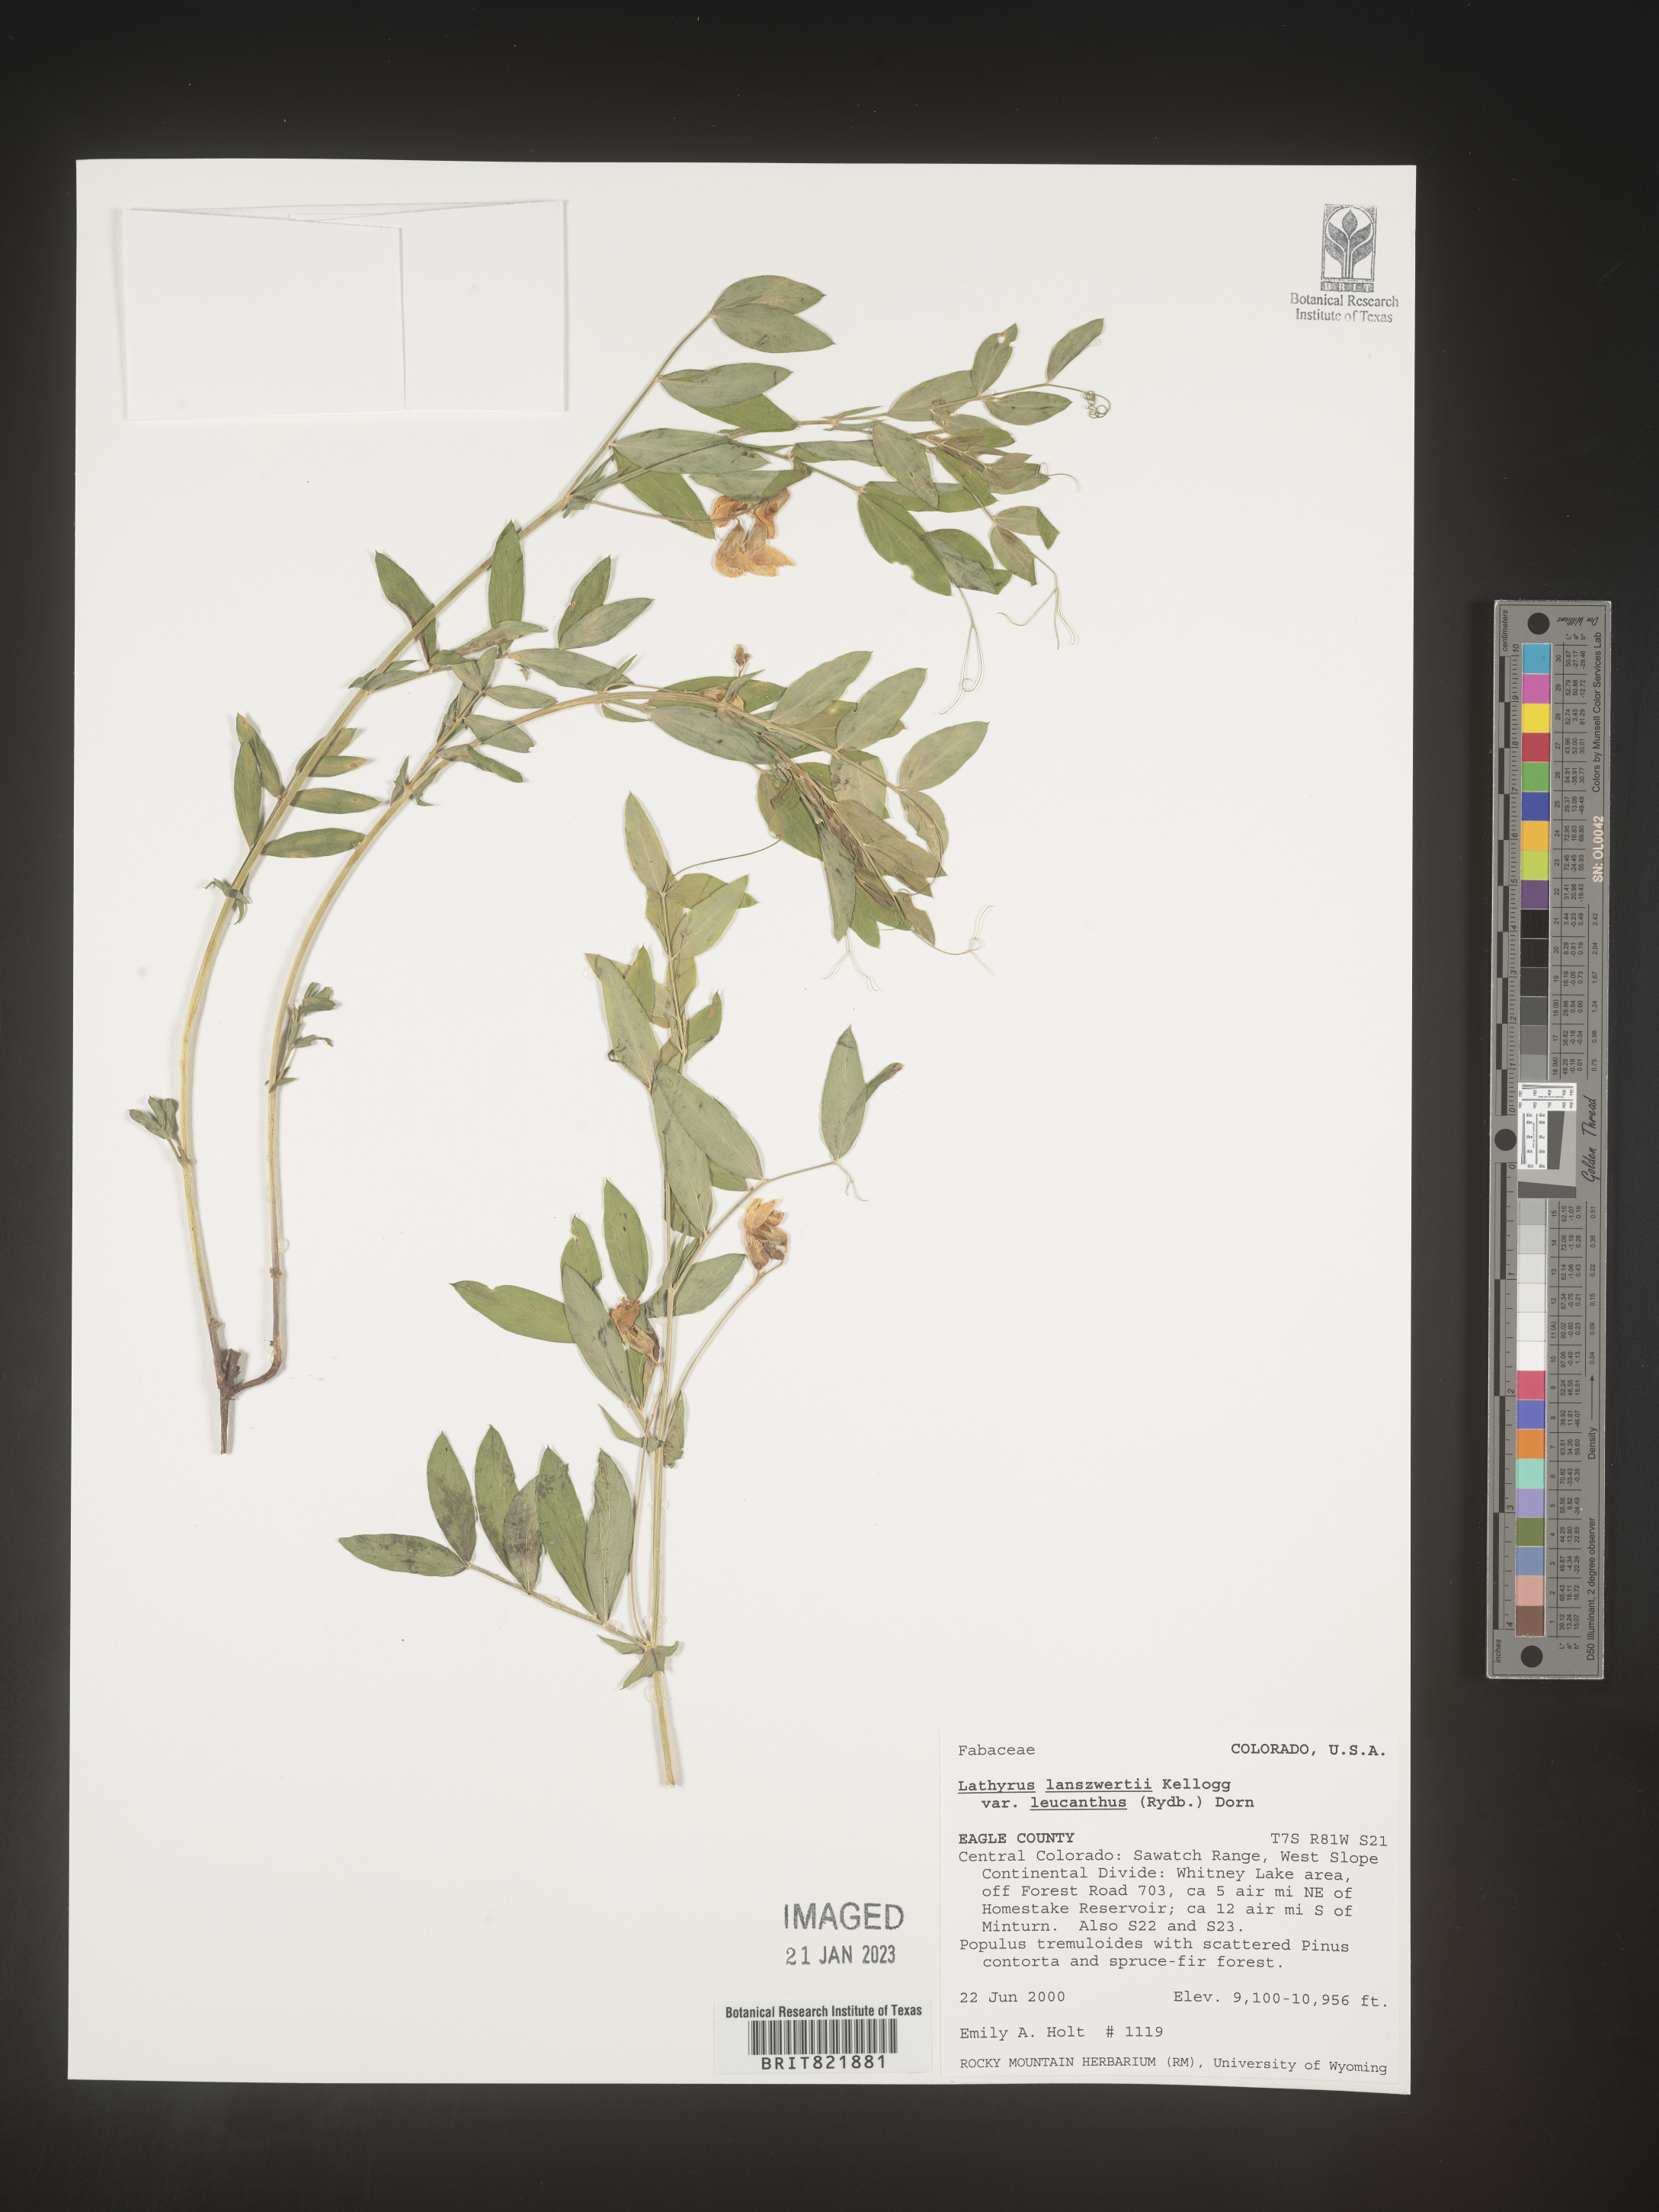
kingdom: Plantae
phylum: Tracheophyta
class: Magnoliopsida
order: Fabales
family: Fabaceae
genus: Lathyrus
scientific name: Lathyrus
